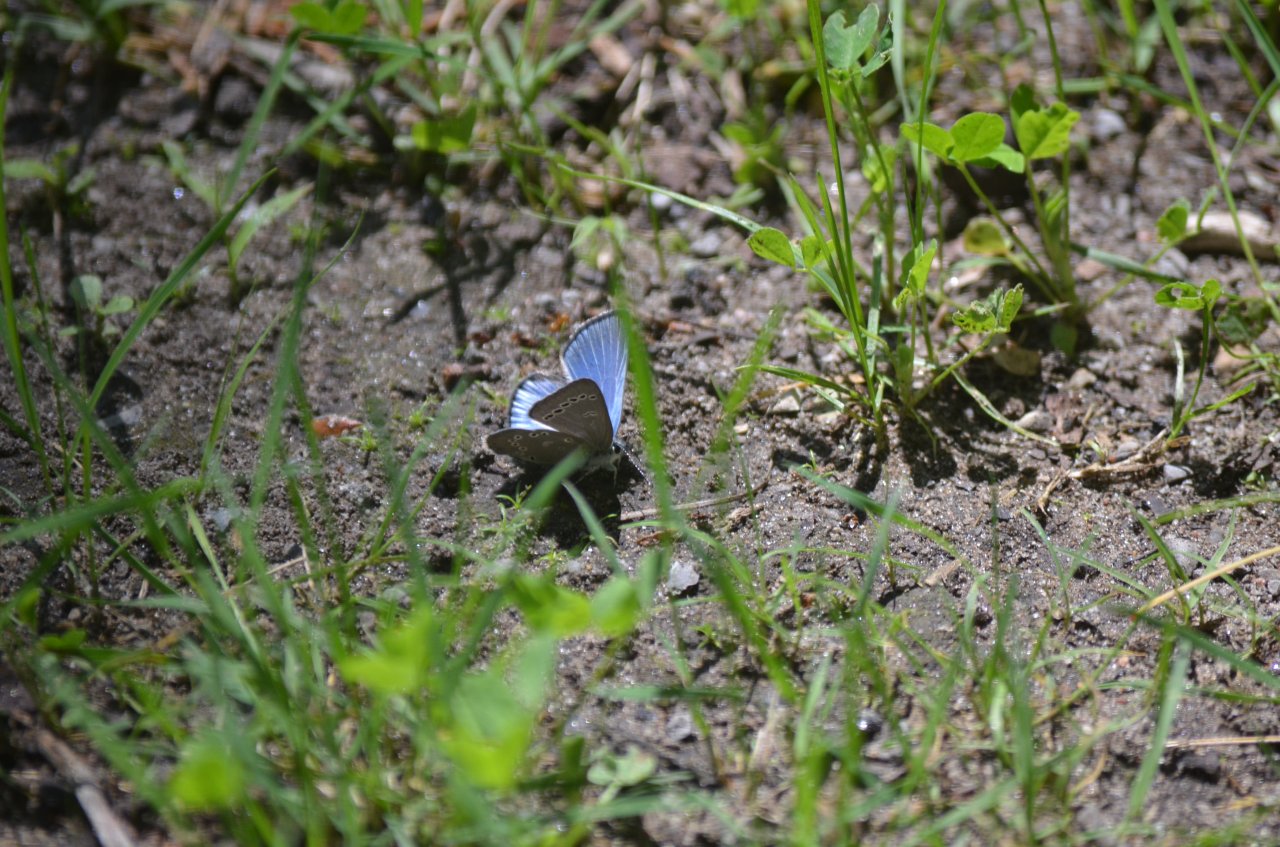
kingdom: Animalia
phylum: Arthropoda
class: Insecta
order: Lepidoptera
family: Lycaenidae
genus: Glaucopsyche
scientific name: Glaucopsyche lygdamus
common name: Silvery Blue
